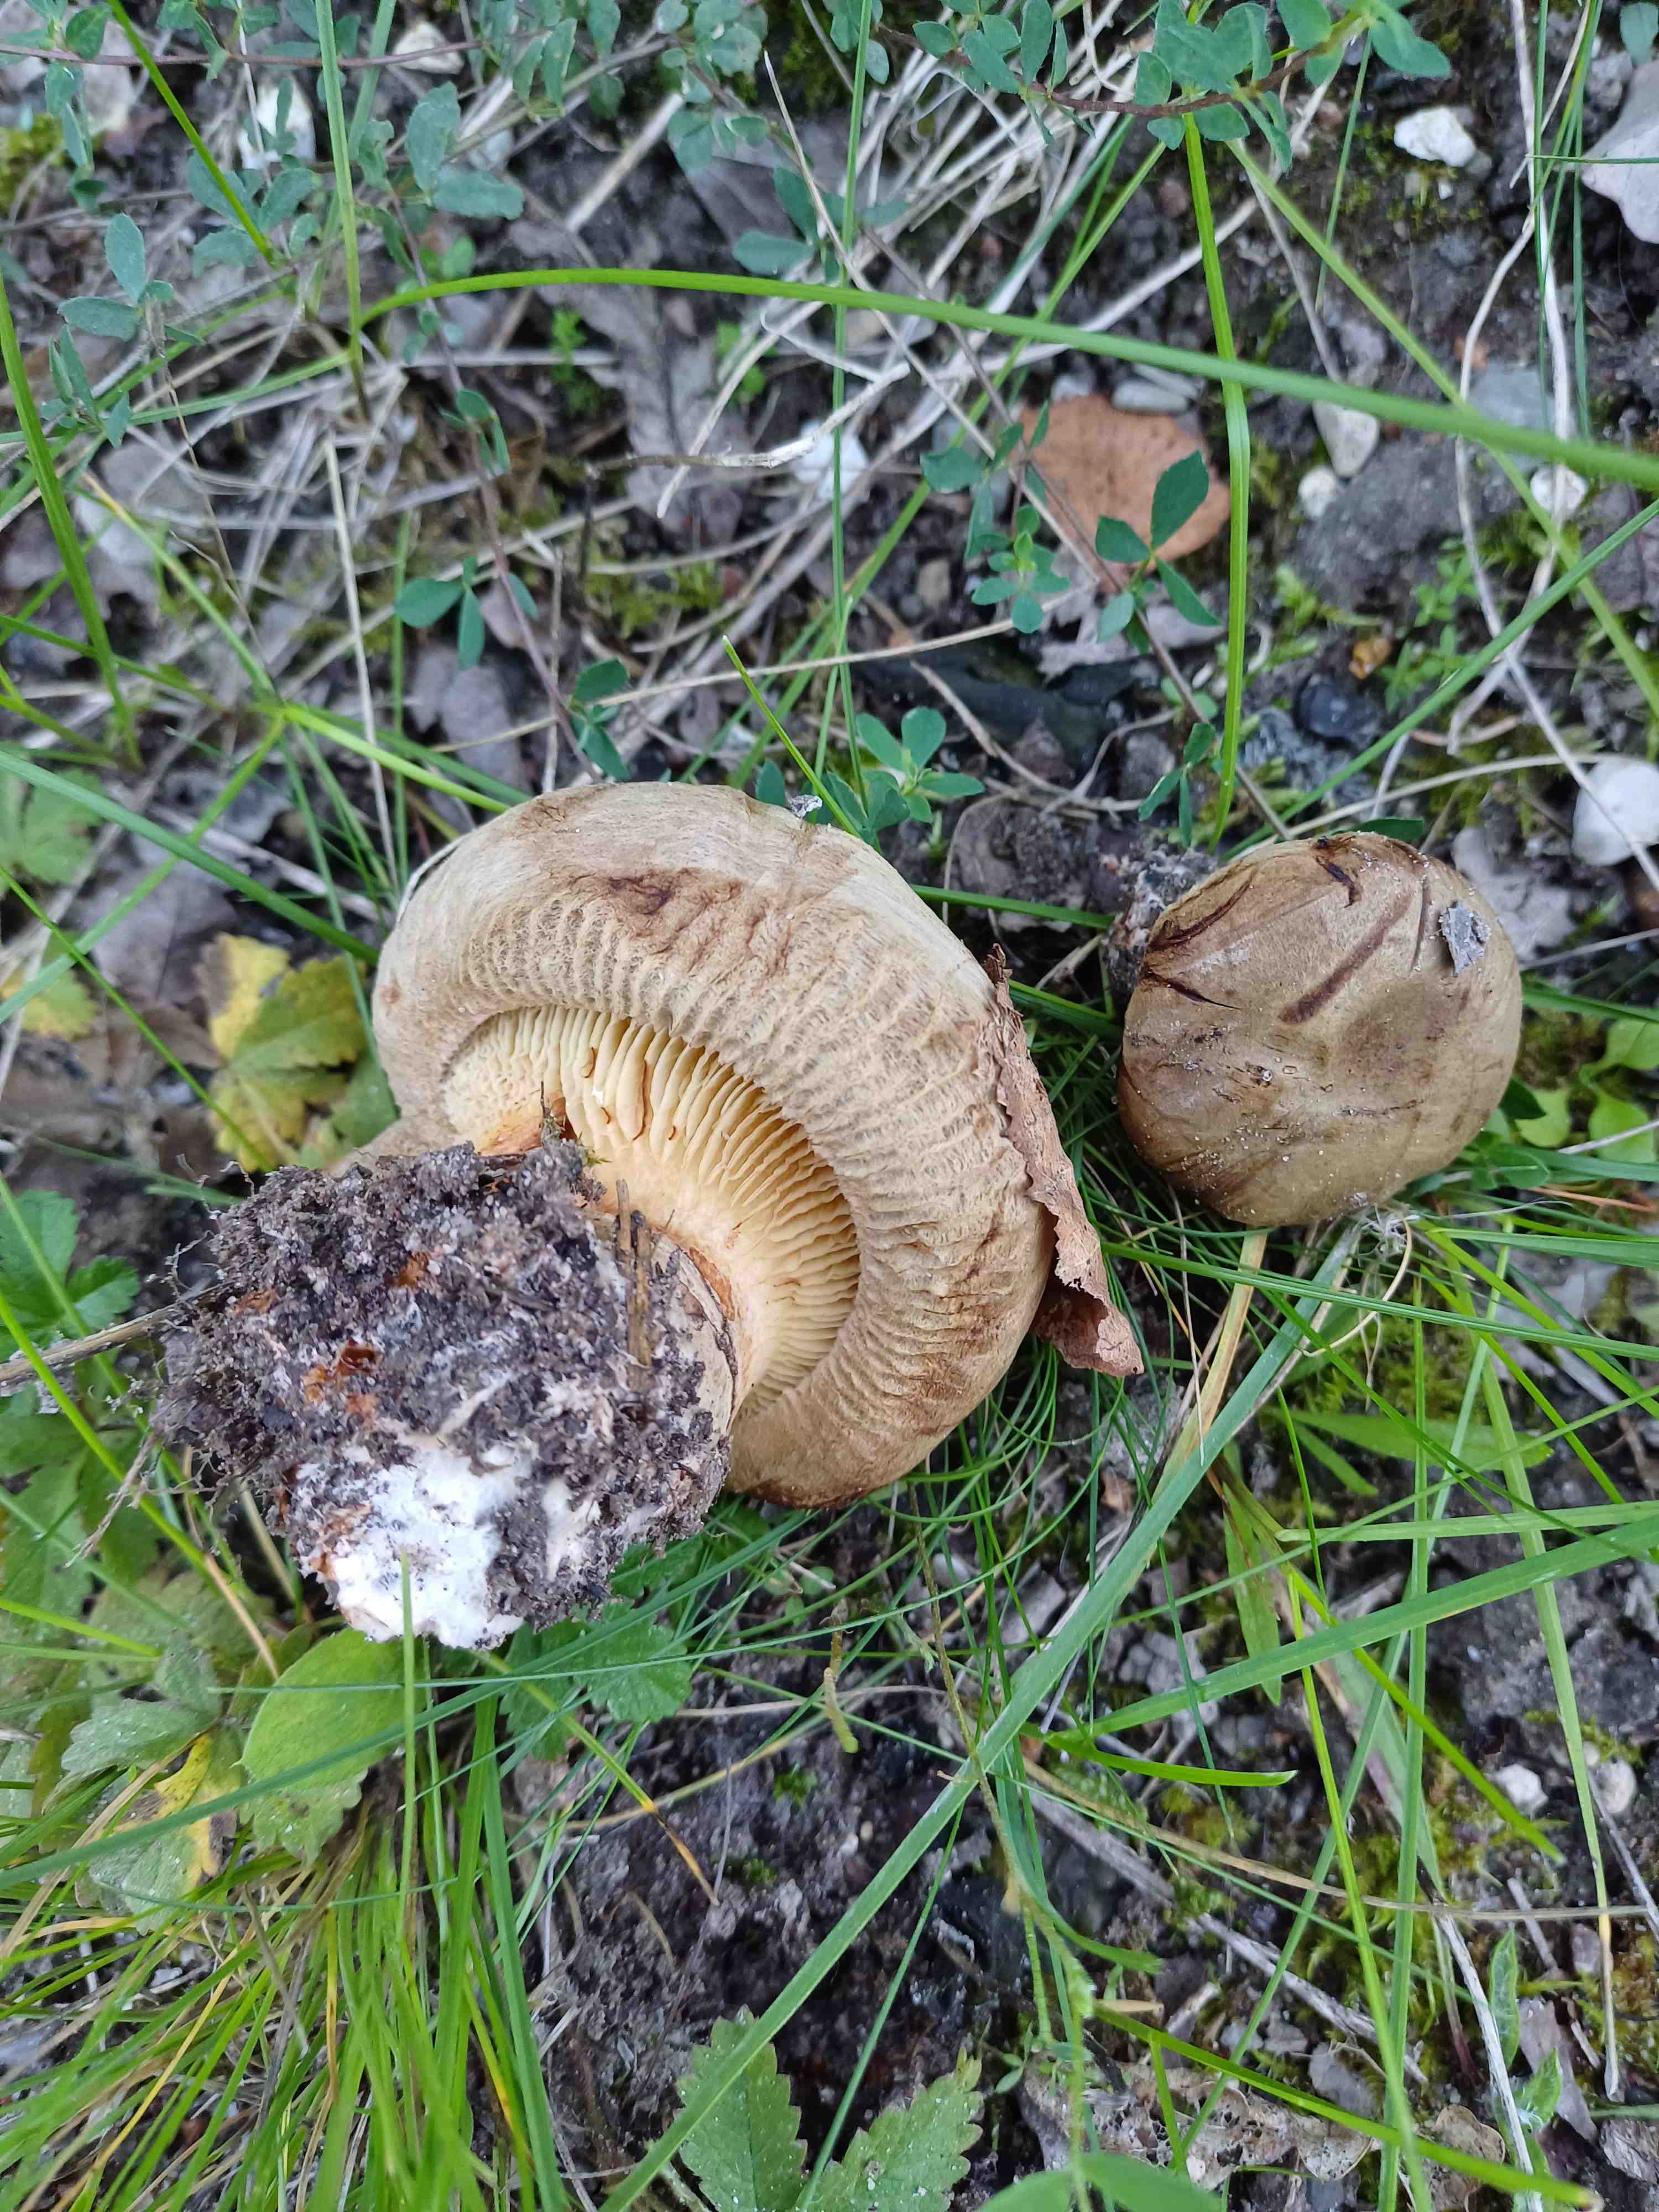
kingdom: Fungi
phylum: Basidiomycota
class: Agaricomycetes
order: Boletales
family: Paxillaceae
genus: Paxillus
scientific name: Paxillus
